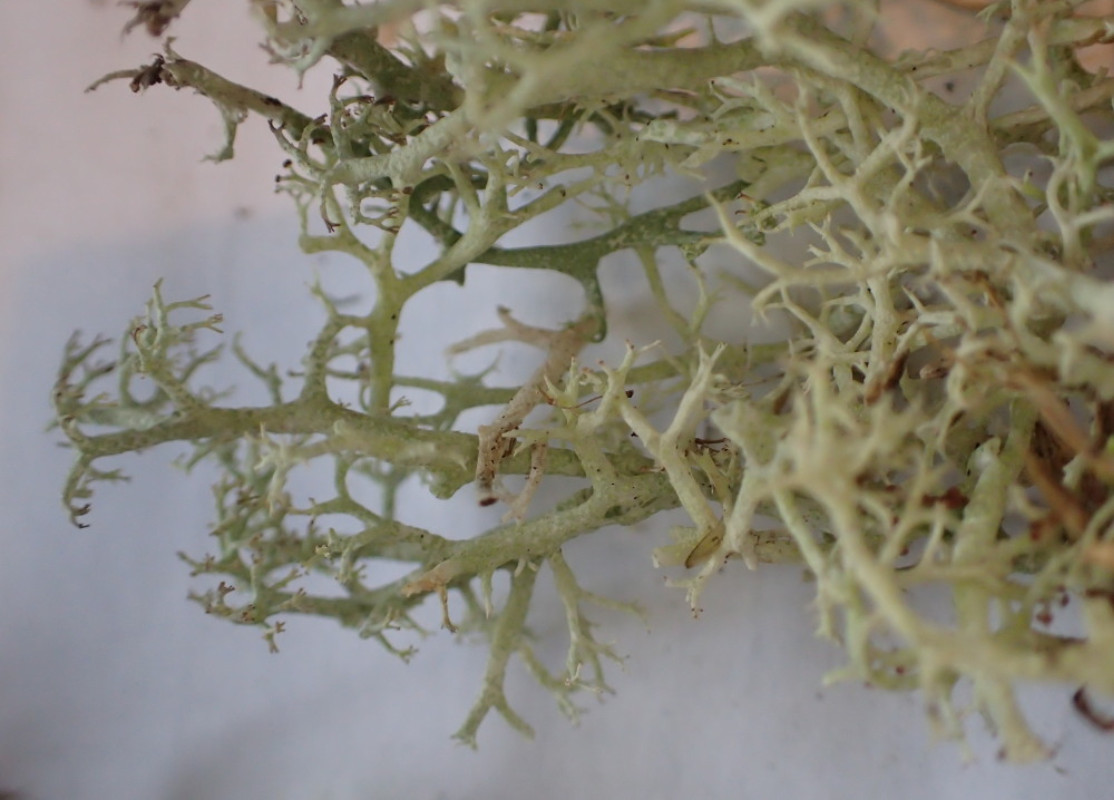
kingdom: Fungi
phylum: Ascomycota
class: Lecanoromycetes
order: Lecanorales
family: Cladoniaceae
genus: Cladonia
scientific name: Cladonia mitis
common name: mild rensdyrlav
